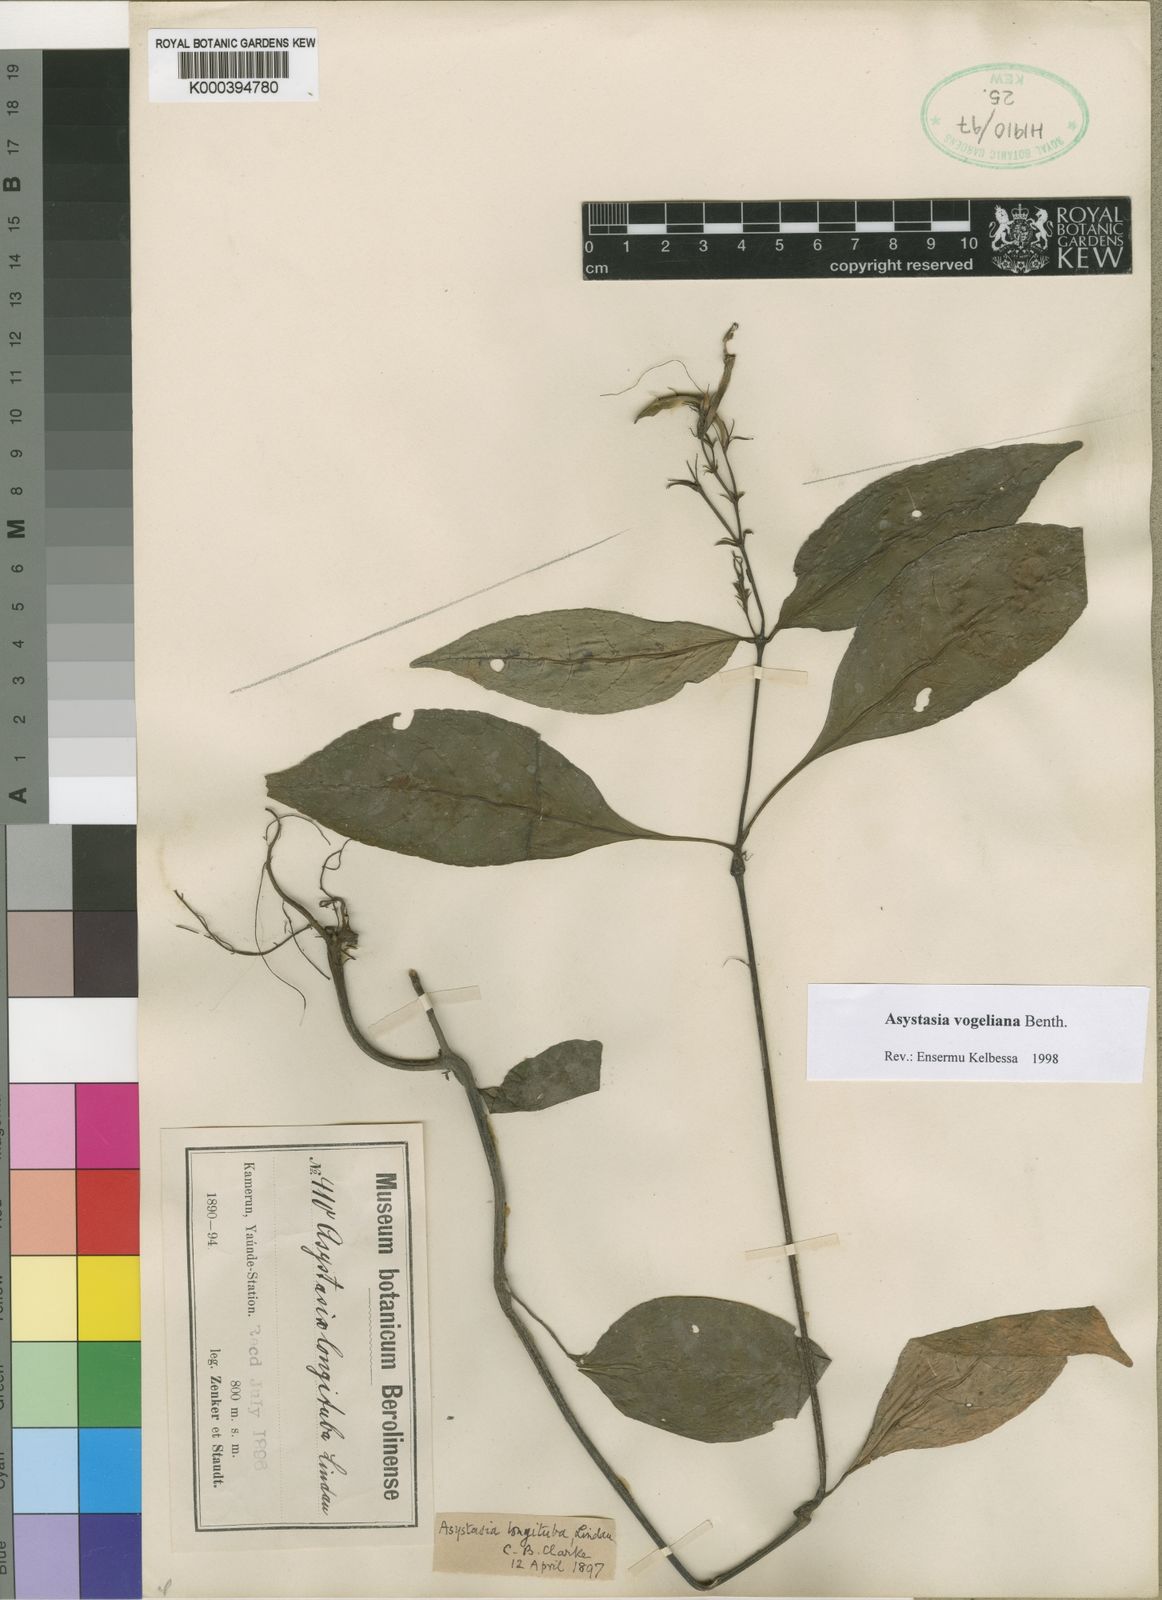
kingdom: Plantae
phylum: Tracheophyta
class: Magnoliopsida
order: Lamiales
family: Acanthaceae
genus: Asystasia
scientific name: Asystasia vogeliana
